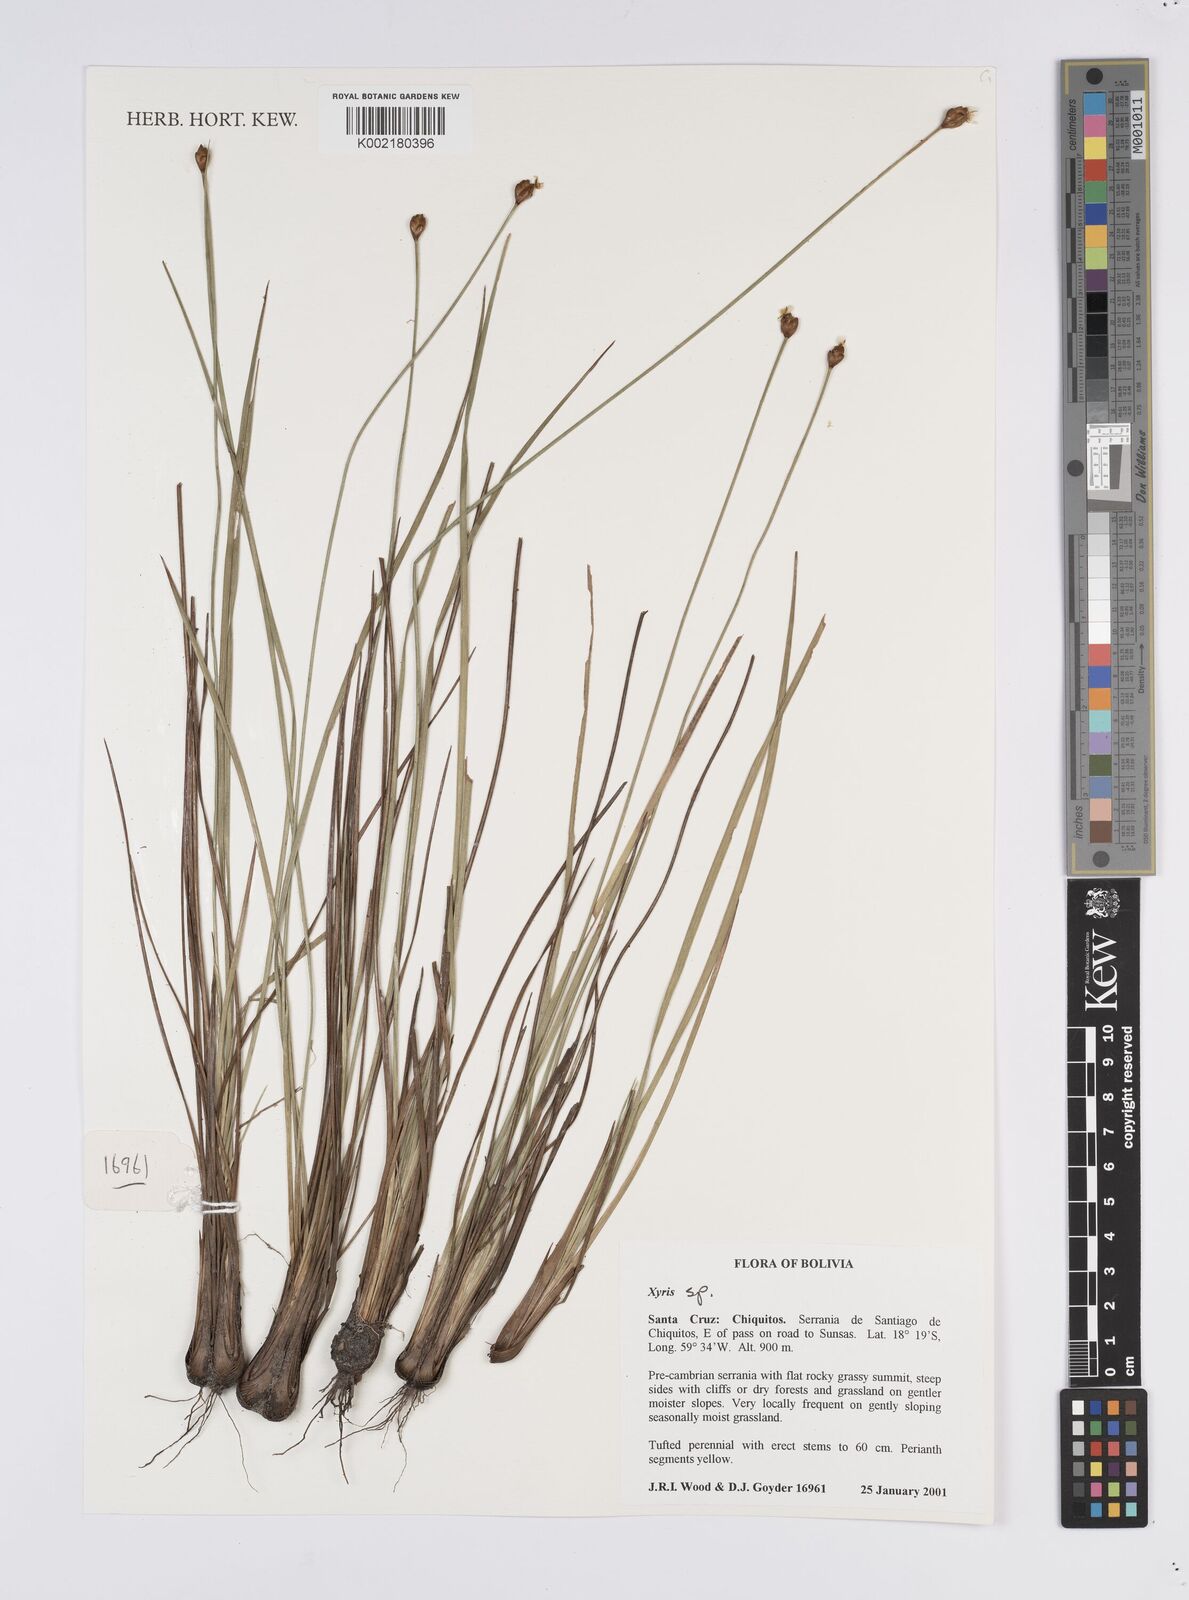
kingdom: Plantae
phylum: Tracheophyta
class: Liliopsida
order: Poales
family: Xyridaceae
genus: Xyris
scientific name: Xyris
